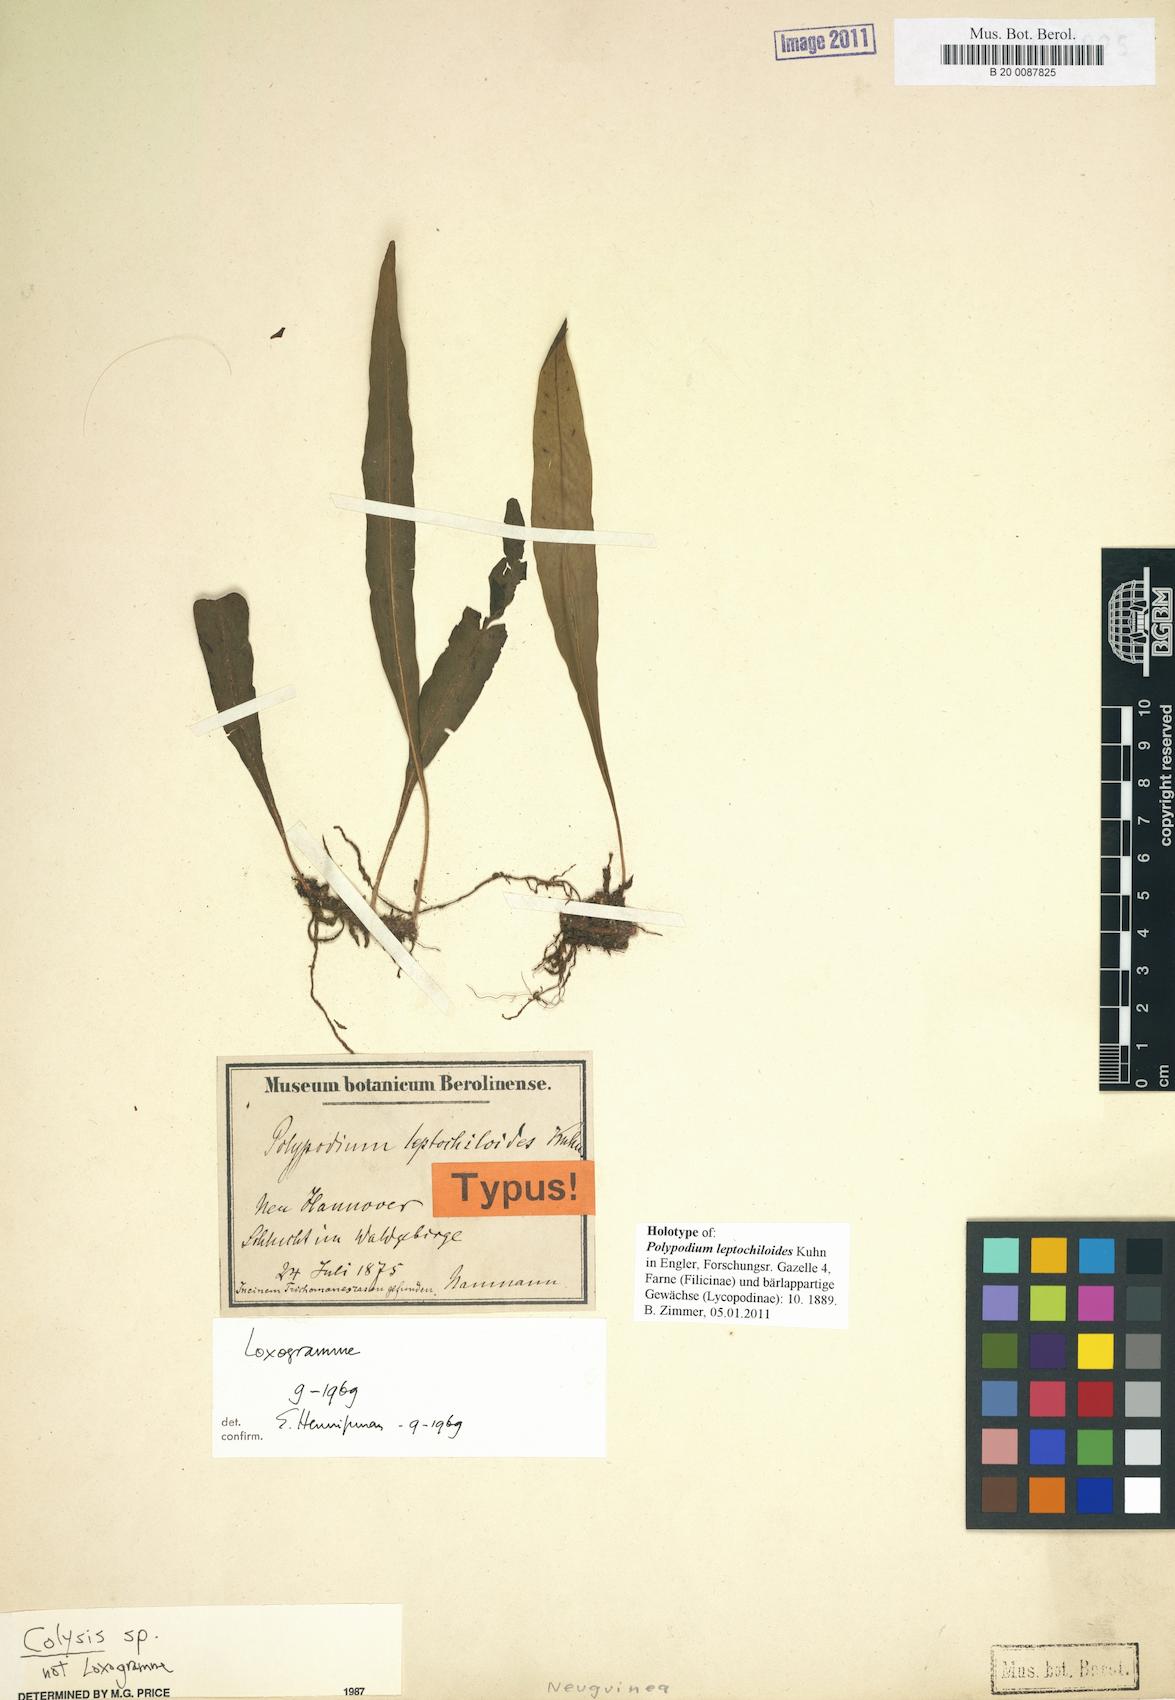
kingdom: Plantae
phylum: Tracheophyta
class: Polypodiopsida
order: Polypodiales
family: Polypodiaceae
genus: Leptochilus
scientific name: Leptochilus axillaris
